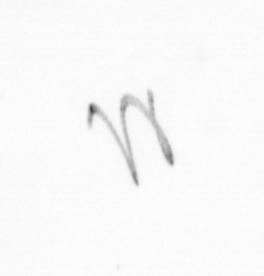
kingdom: Chromista
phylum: Ochrophyta
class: Bacillariophyceae
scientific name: Bacillariophyceae
